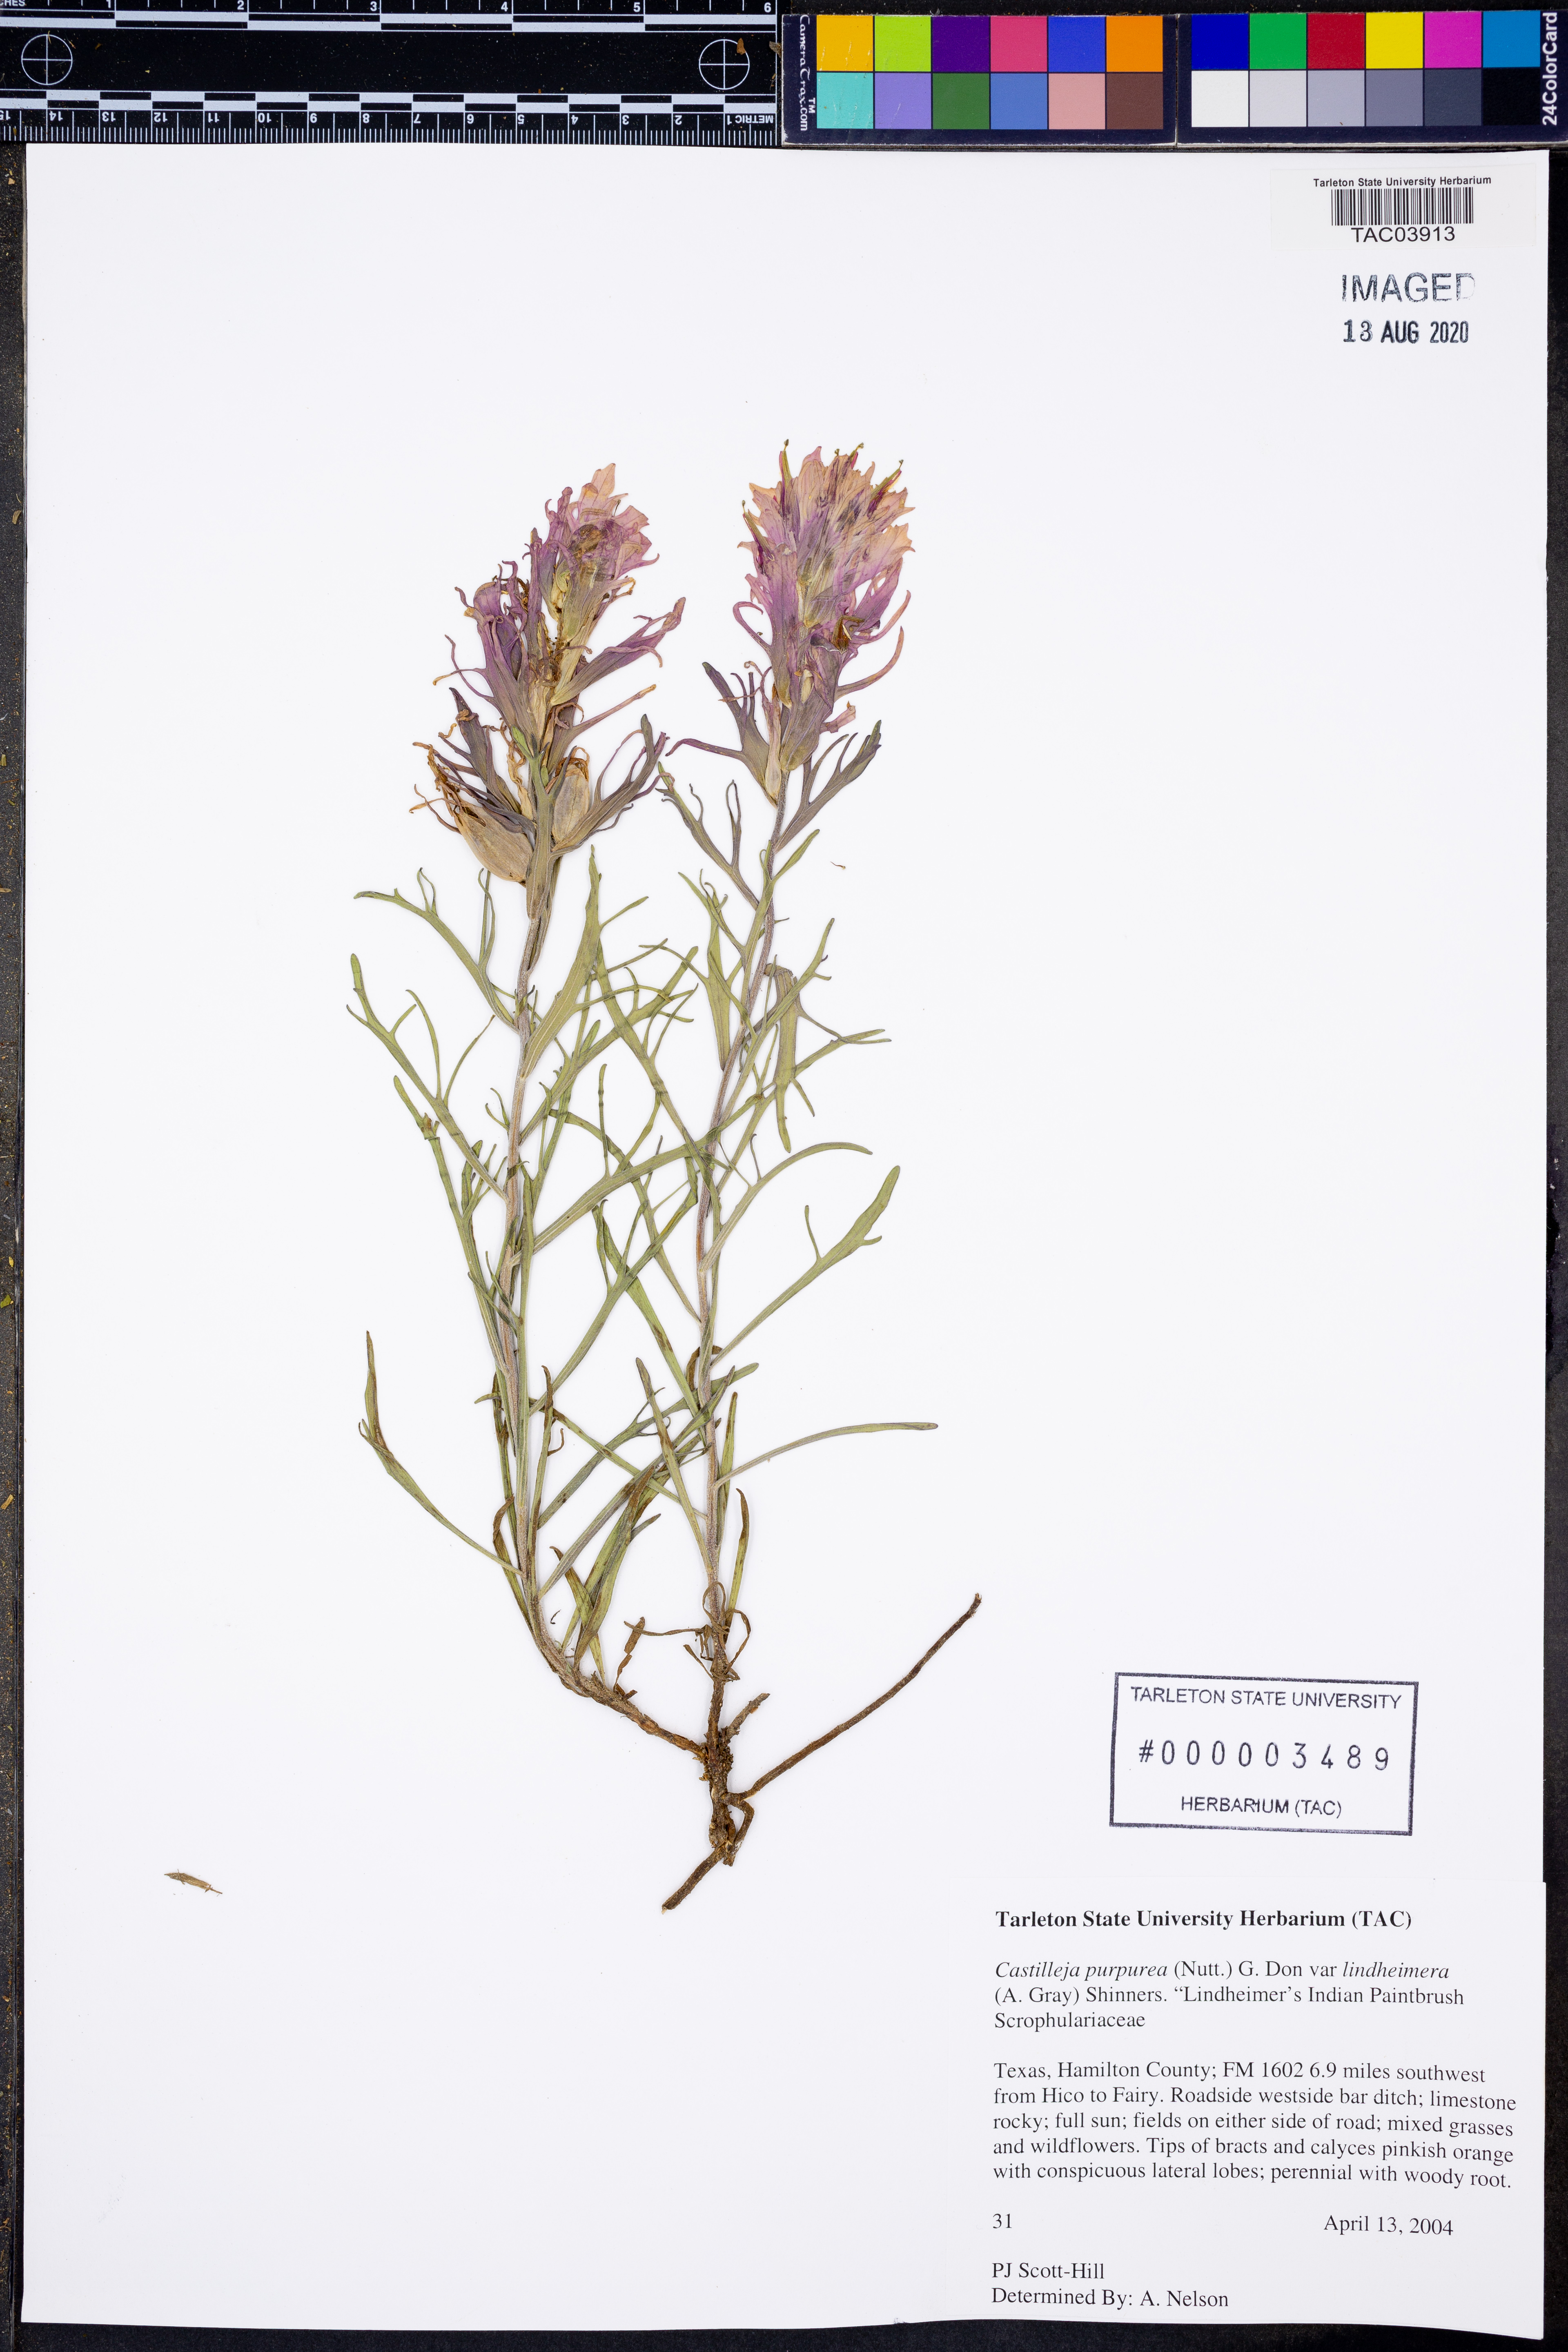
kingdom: Plantae
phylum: Tracheophyta
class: Magnoliopsida
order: Lamiales
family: Orobanchaceae
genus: Castilleja
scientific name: Castilleja lindheimeri
